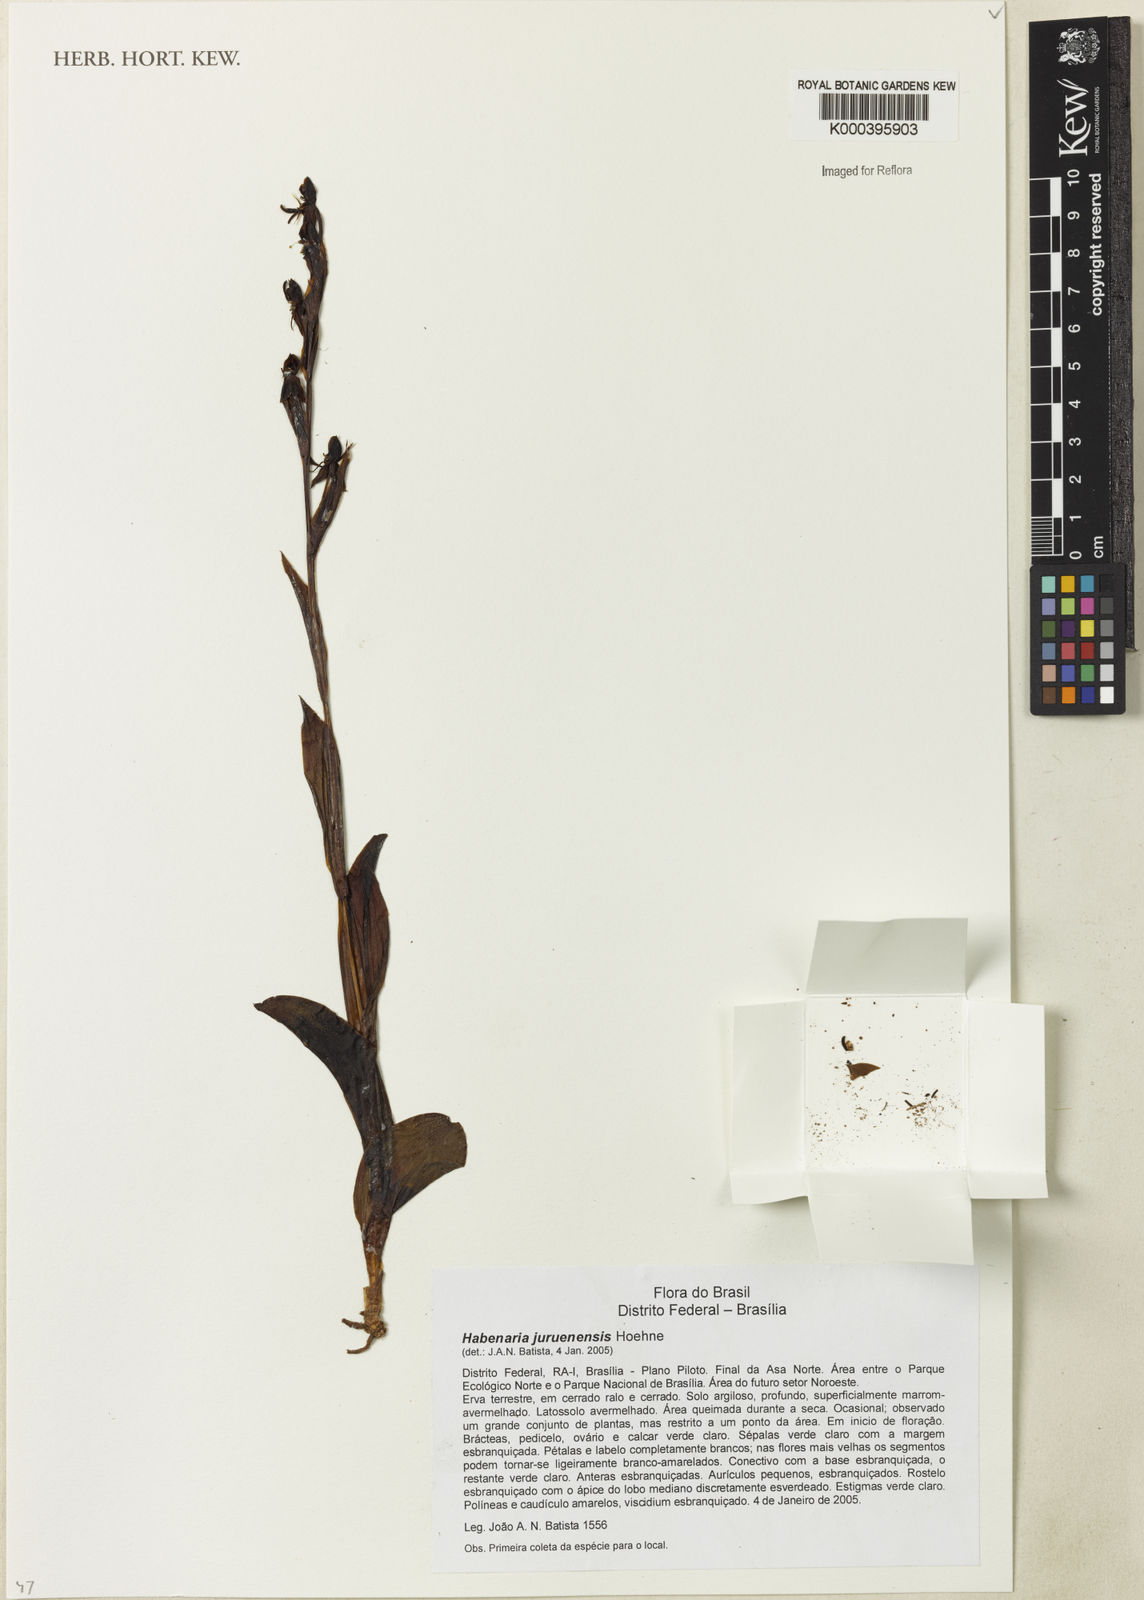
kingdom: Plantae
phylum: Tracheophyta
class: Liliopsida
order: Asparagales
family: Orchidaceae
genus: Habenaria
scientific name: Habenaria juruenensis
